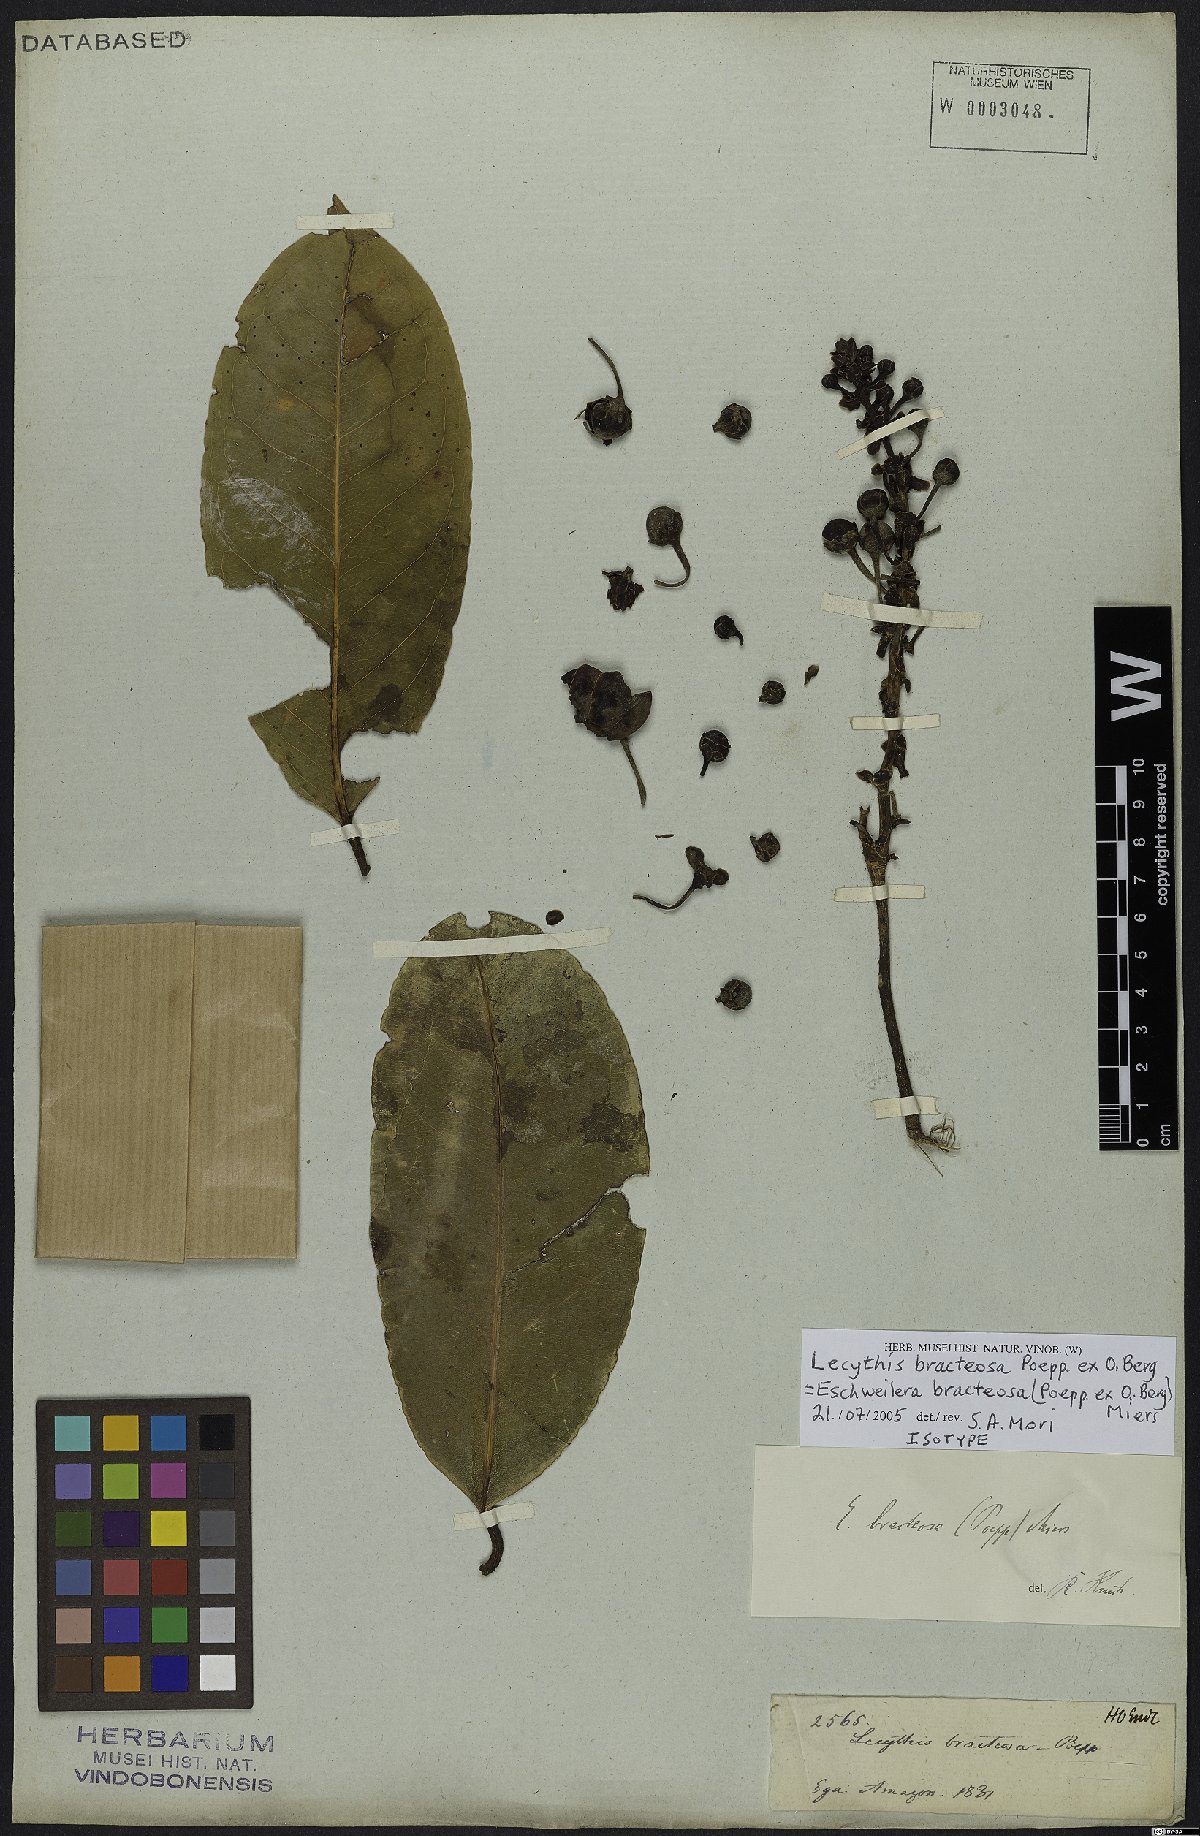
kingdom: Plantae
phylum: Tracheophyta
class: Magnoliopsida
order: Ericales
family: Lecythidaceae
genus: Eschweilera
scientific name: Eschweilera bracteosa
